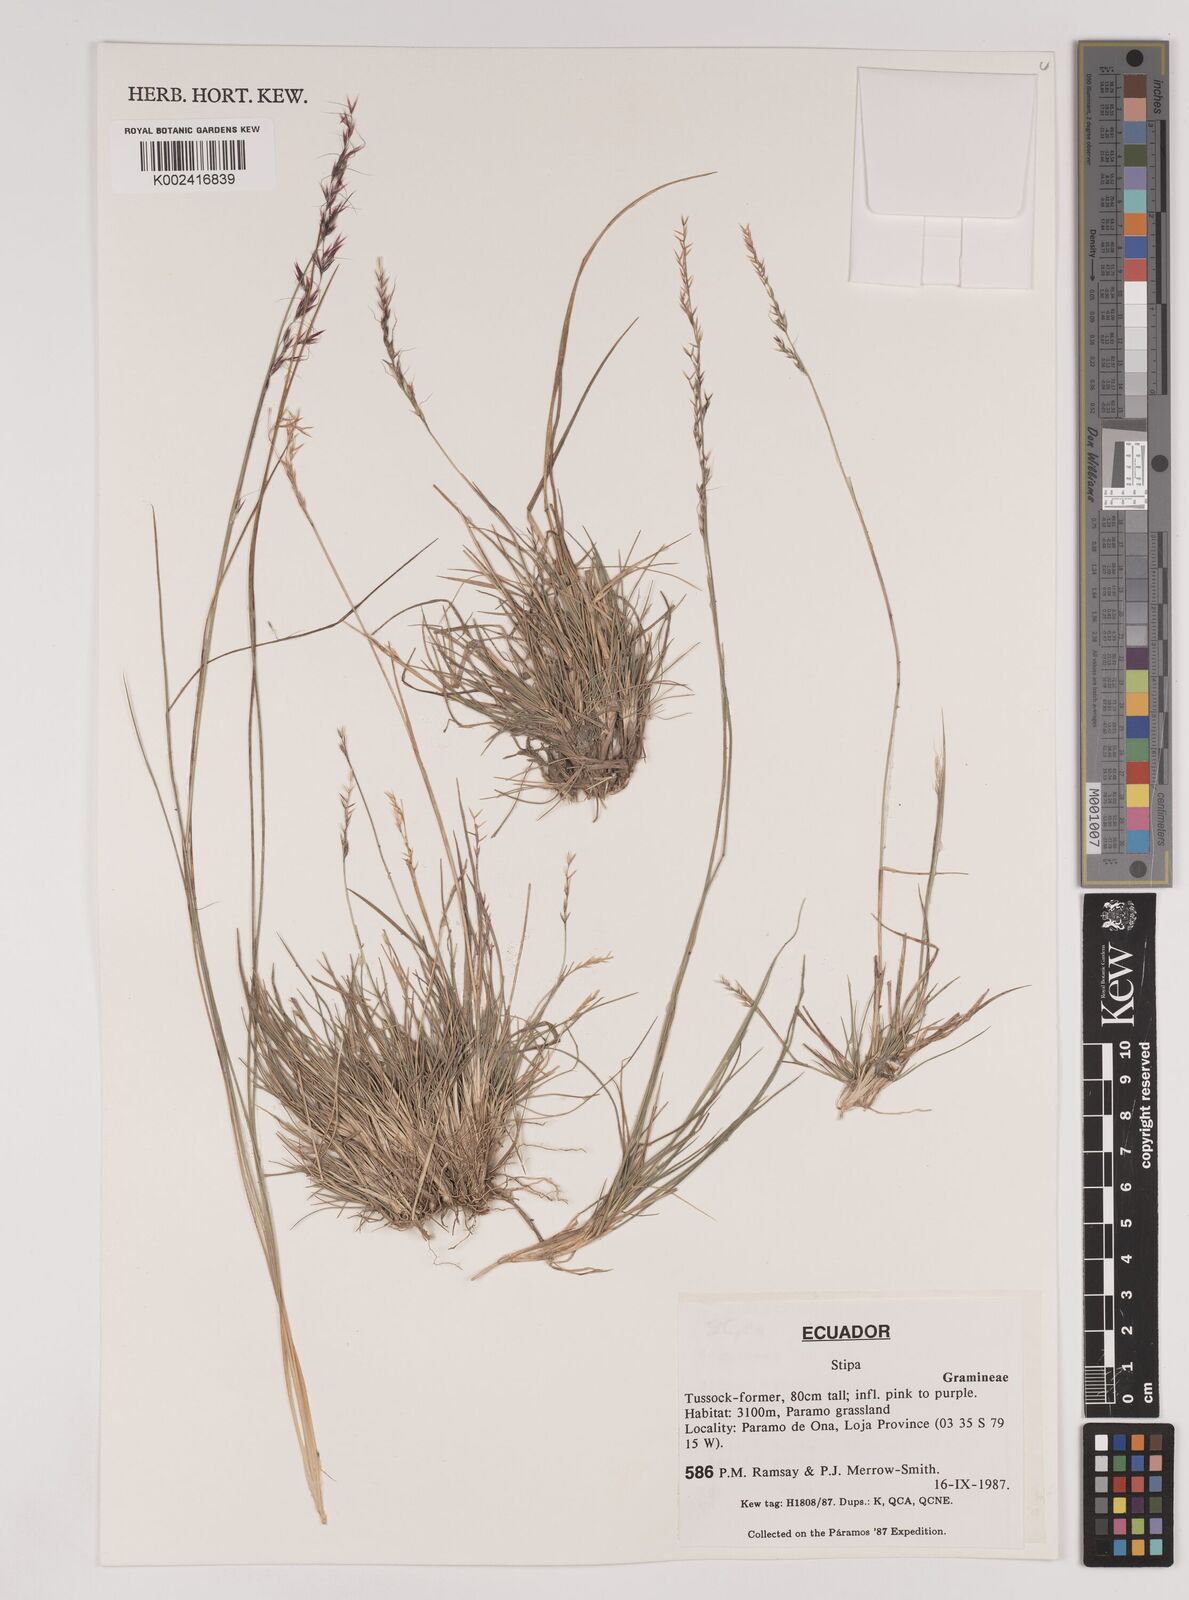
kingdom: Plantae
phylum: Tracheophyta
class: Liliopsida
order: Poales
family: Poaceae
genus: Stipa
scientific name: Stipa
